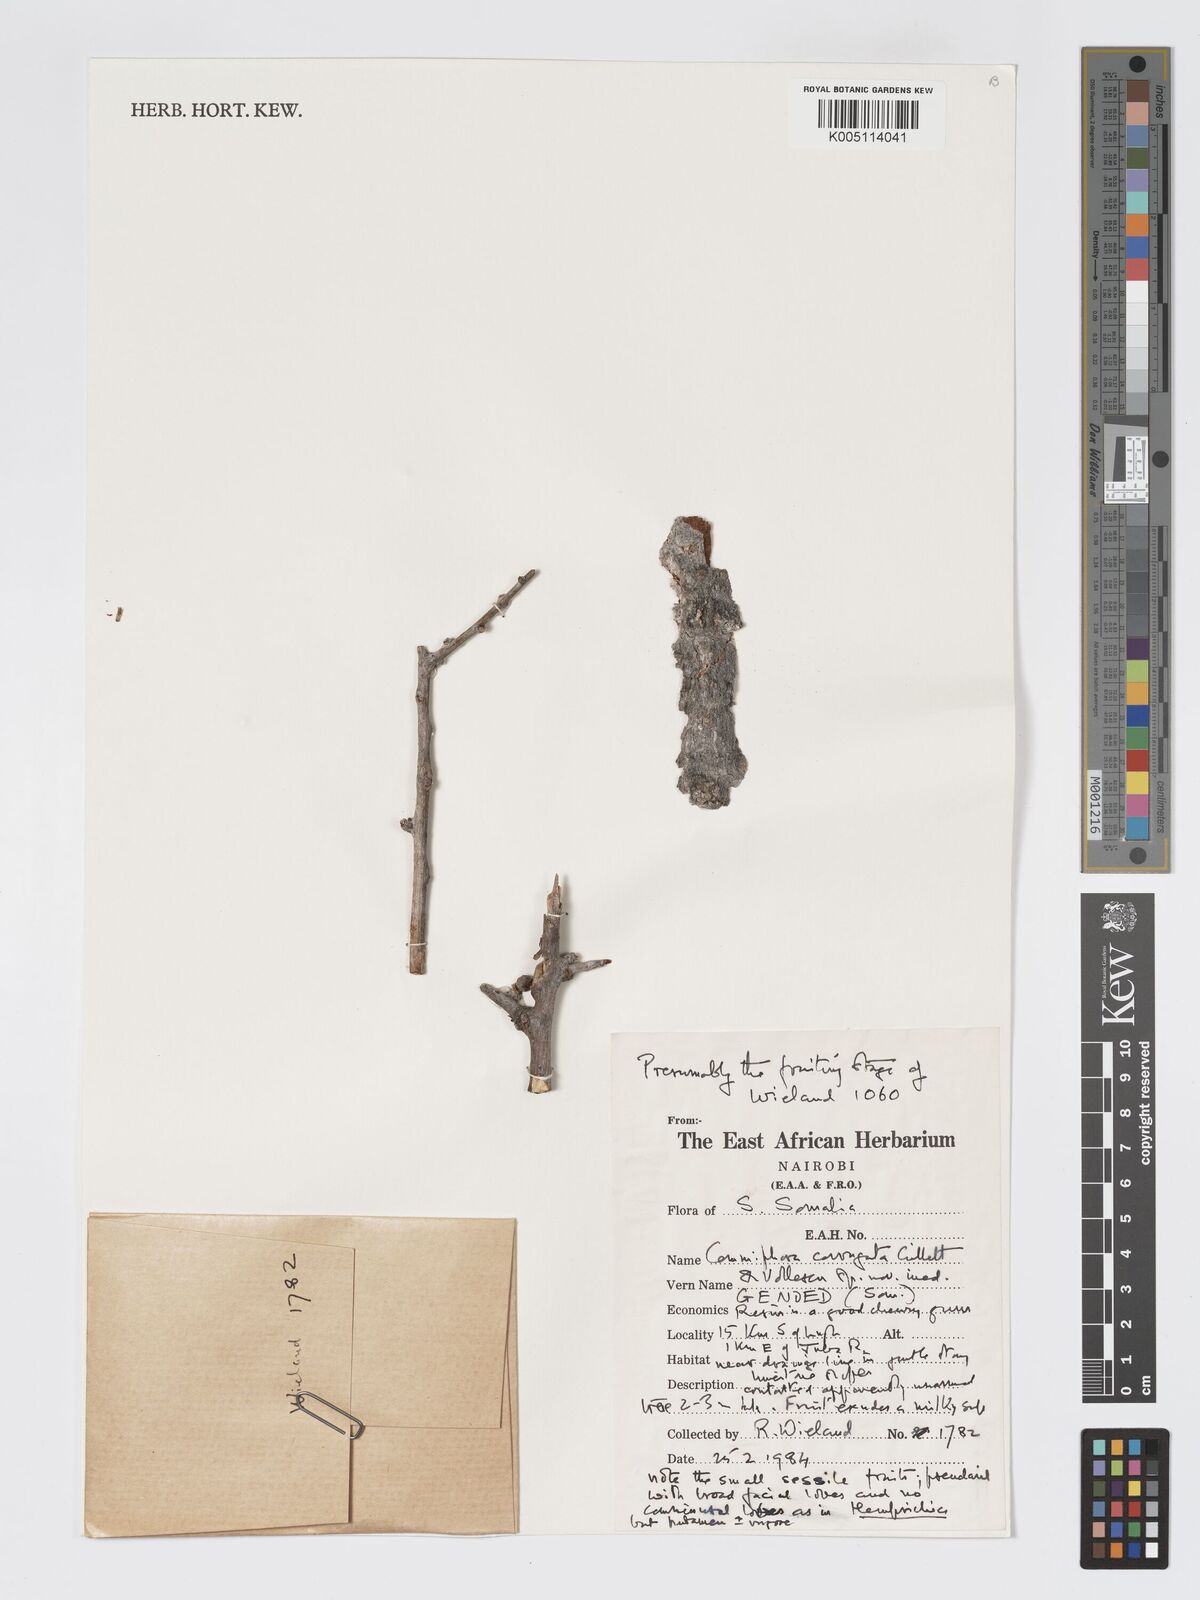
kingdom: Plantae
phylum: Tracheophyta
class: Magnoliopsida
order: Sapindales
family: Burseraceae
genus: Commiphora
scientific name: Commiphora corrugata
